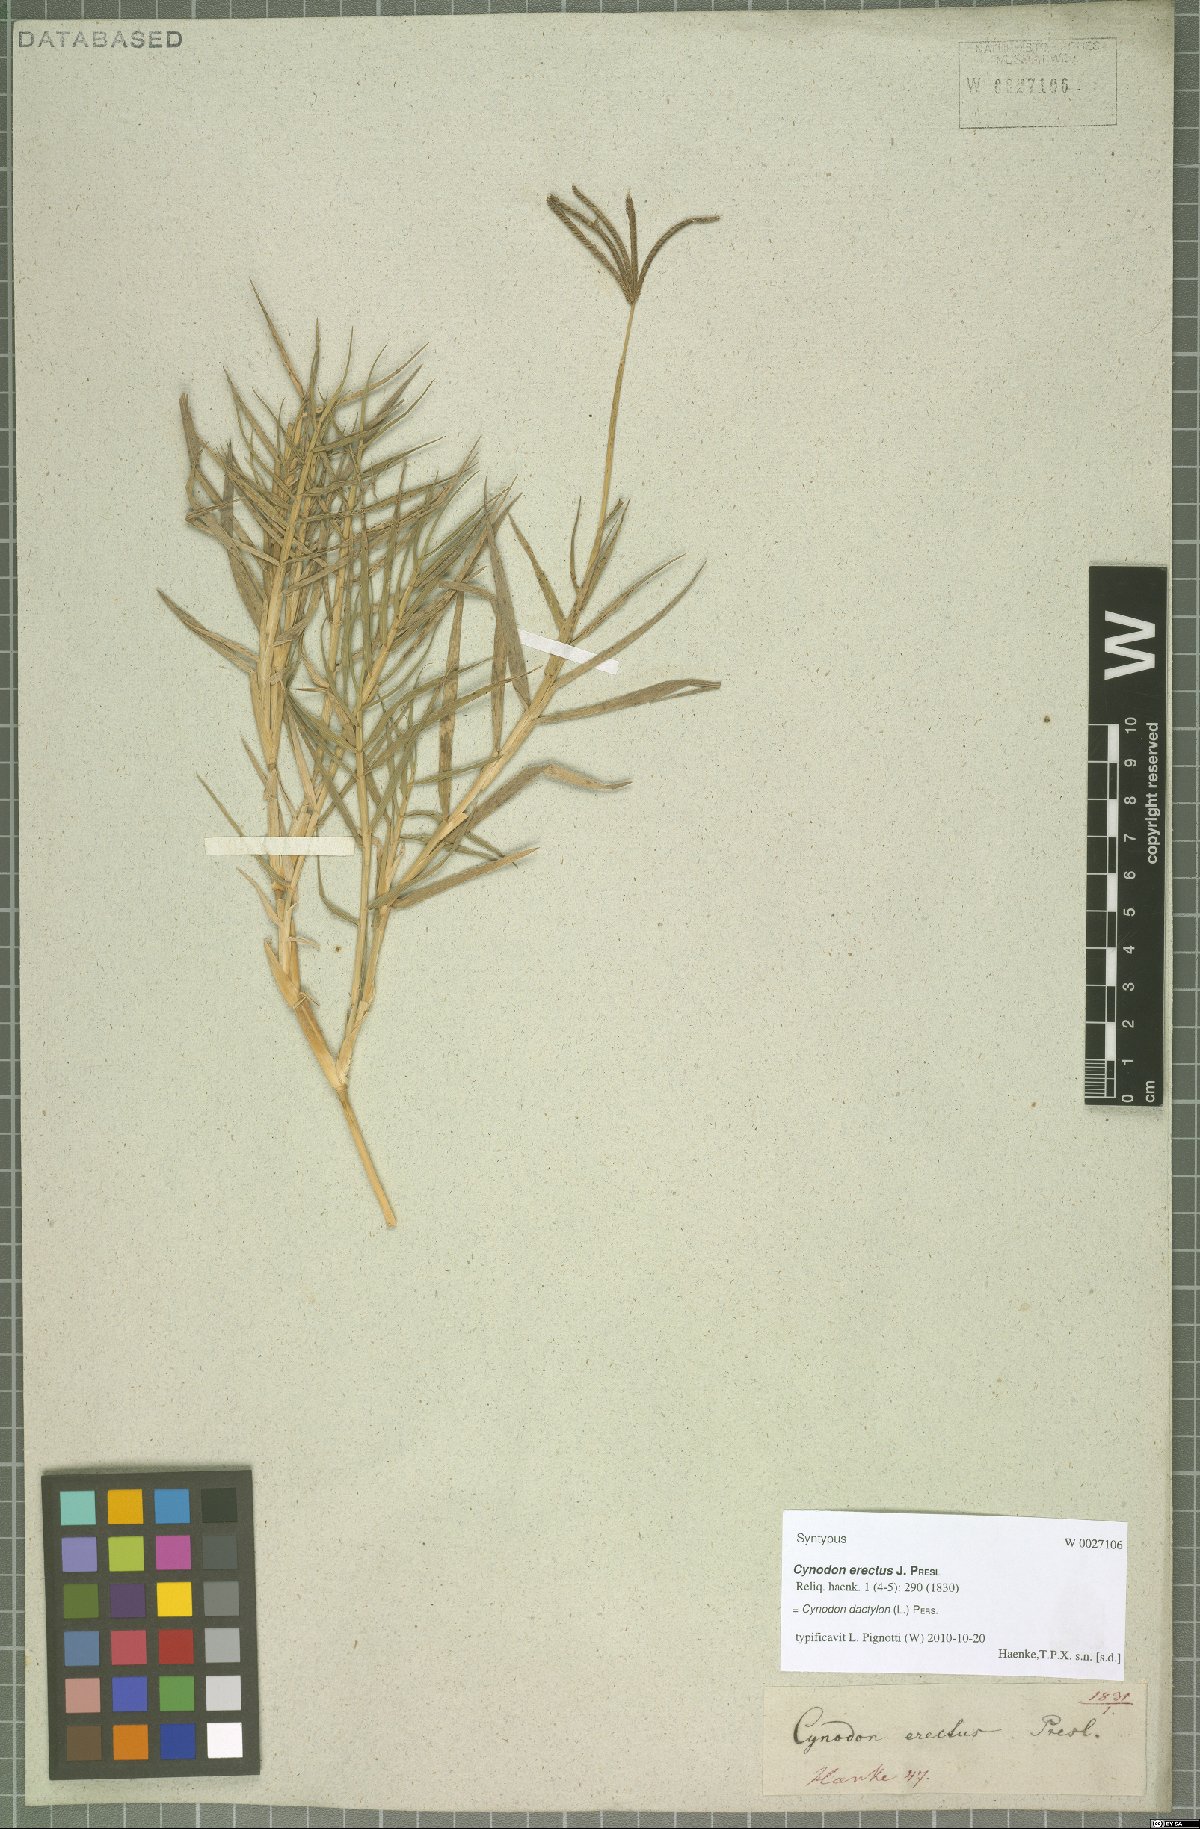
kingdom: Plantae
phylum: Tracheophyta
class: Liliopsida
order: Poales
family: Poaceae
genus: Cynodon
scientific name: Cynodon dactylon
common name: Bermuda grass
